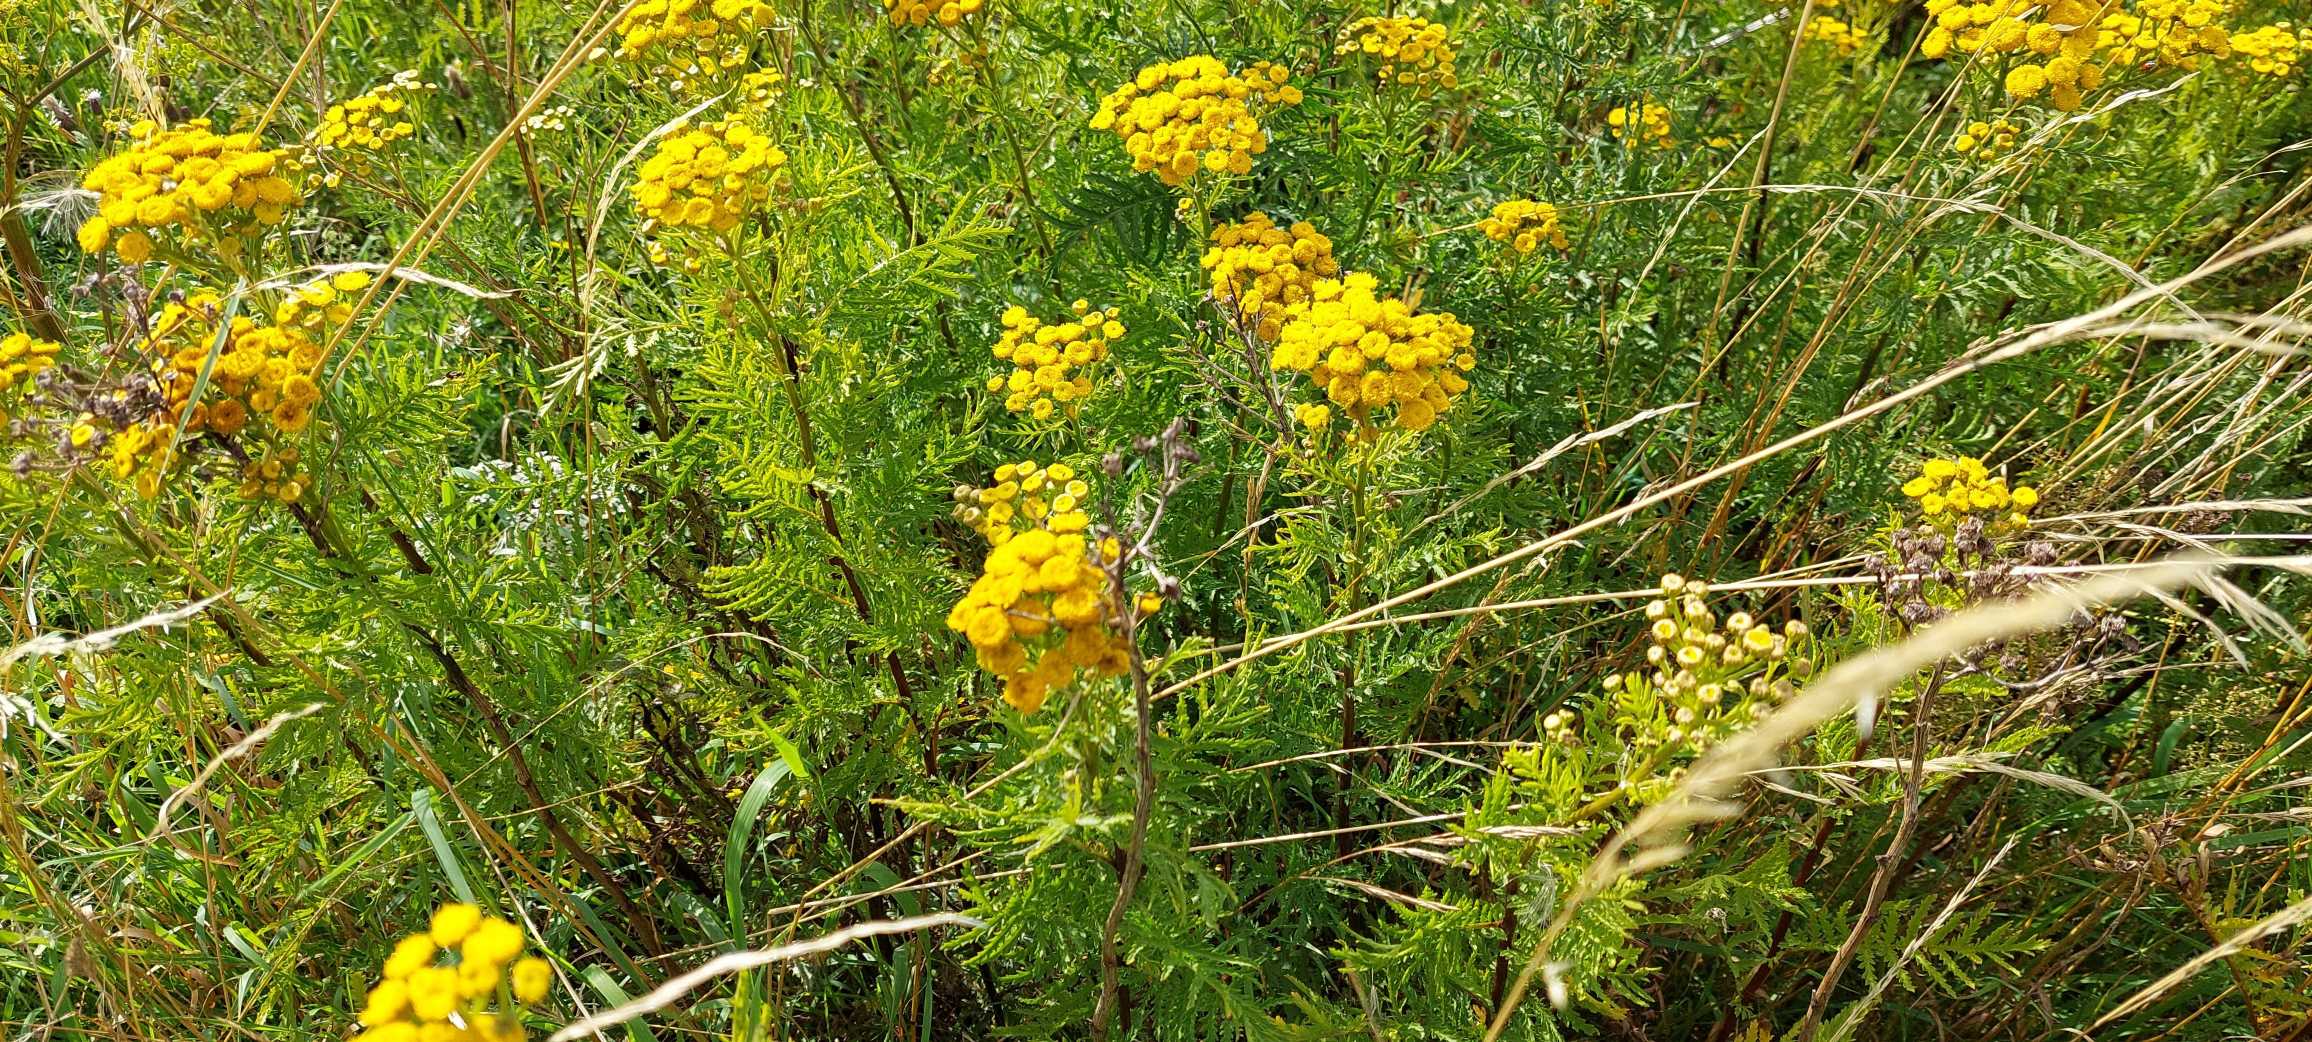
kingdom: Plantae
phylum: Tracheophyta
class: Magnoliopsida
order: Asterales
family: Asteraceae
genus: Tanacetum
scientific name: Tanacetum vulgare
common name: Rejnfan
